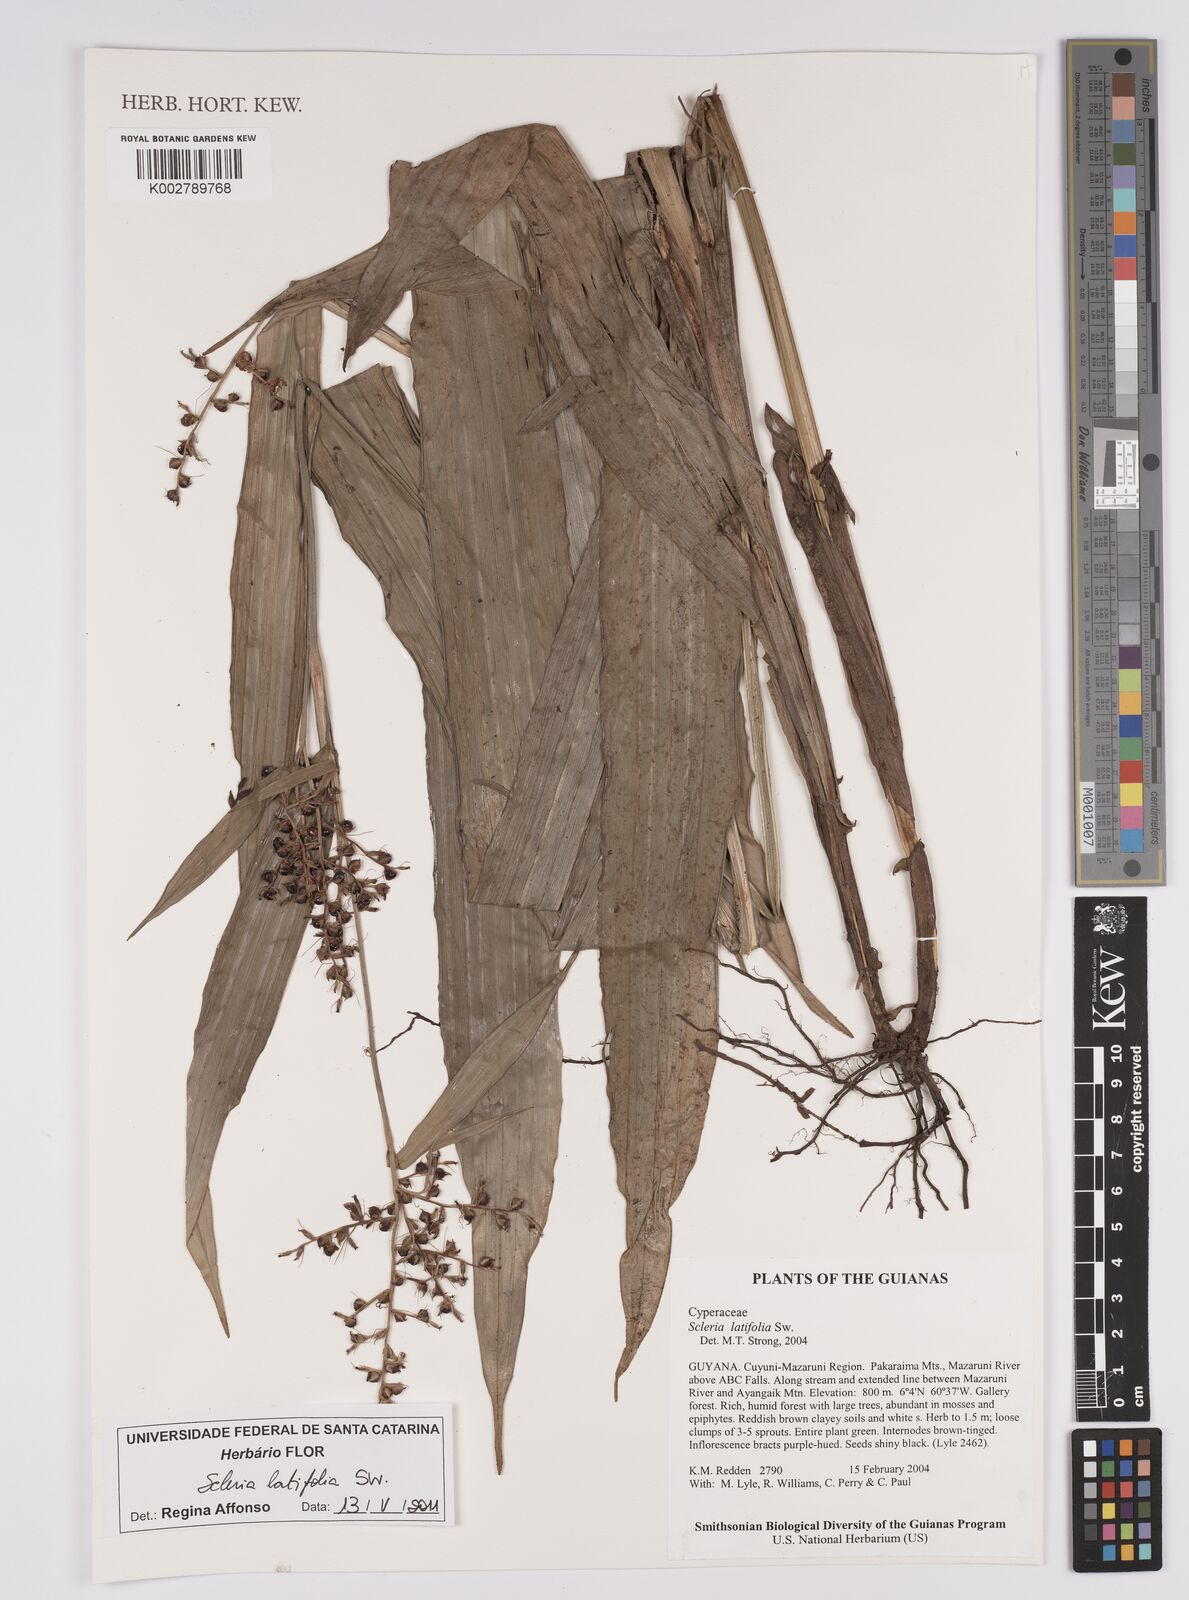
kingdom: Plantae
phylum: Tracheophyta
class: Liliopsida
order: Poales
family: Cyperaceae
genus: Scleria
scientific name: Scleria latifolia
